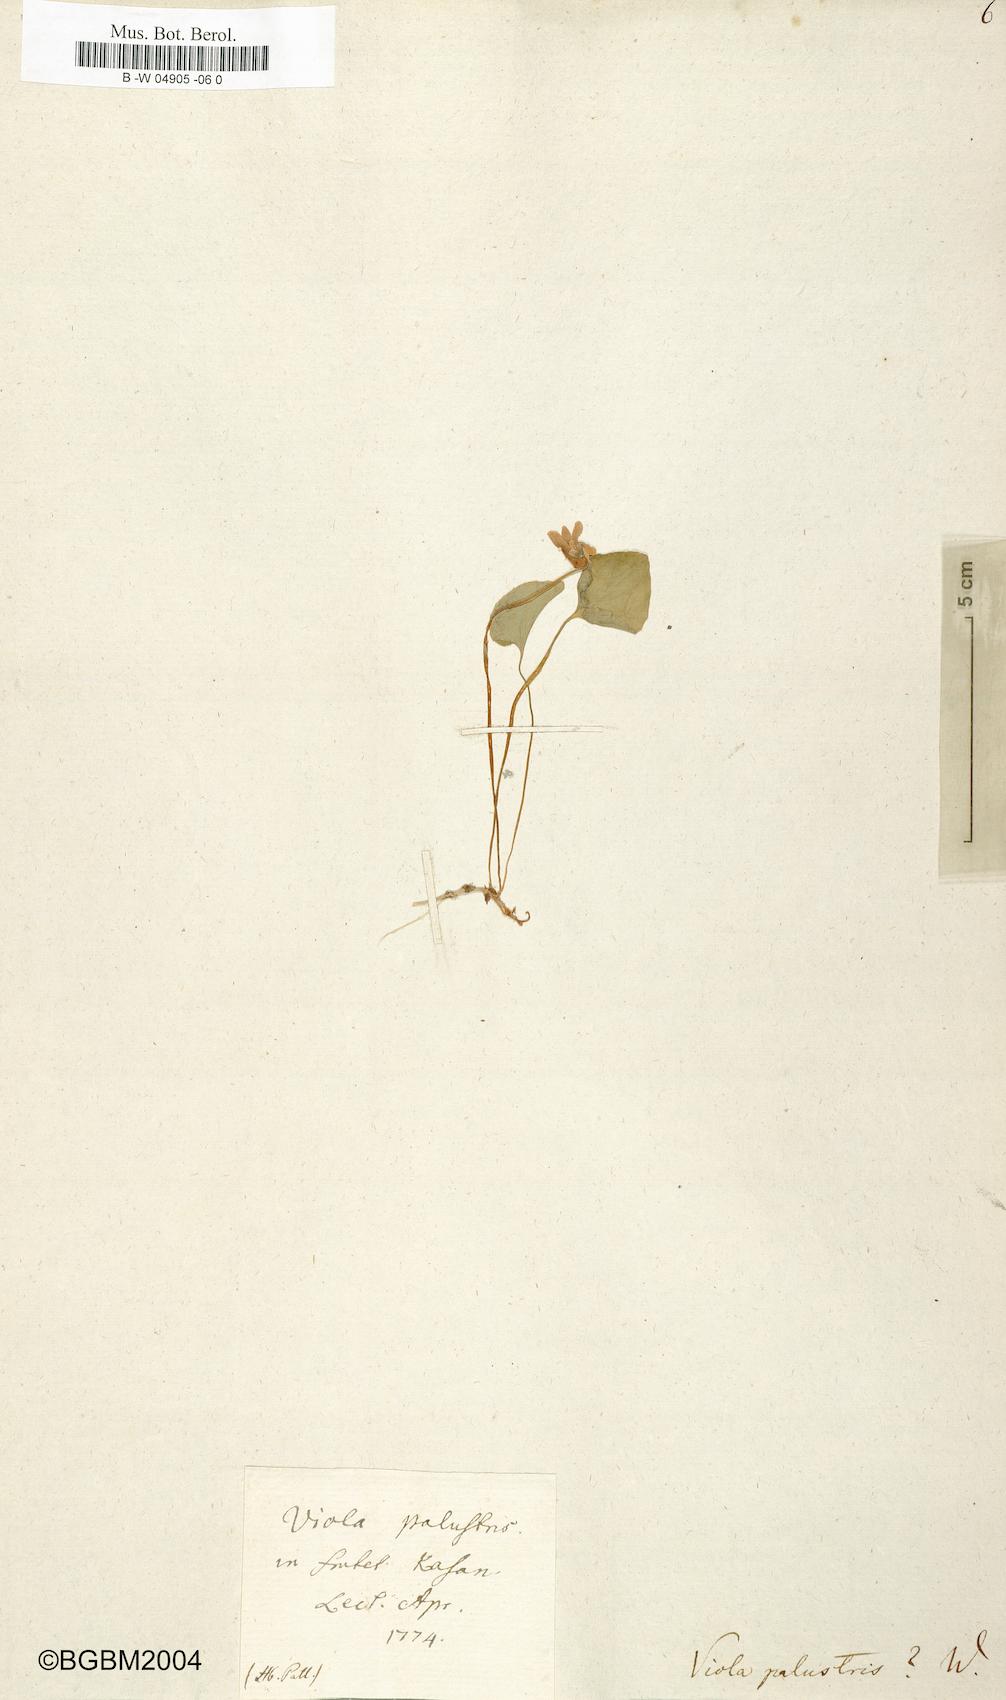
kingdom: Plantae
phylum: Tracheophyta
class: Magnoliopsida
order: Malpighiales
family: Violaceae
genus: Viola
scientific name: Viola palustris
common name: Marsh violet
